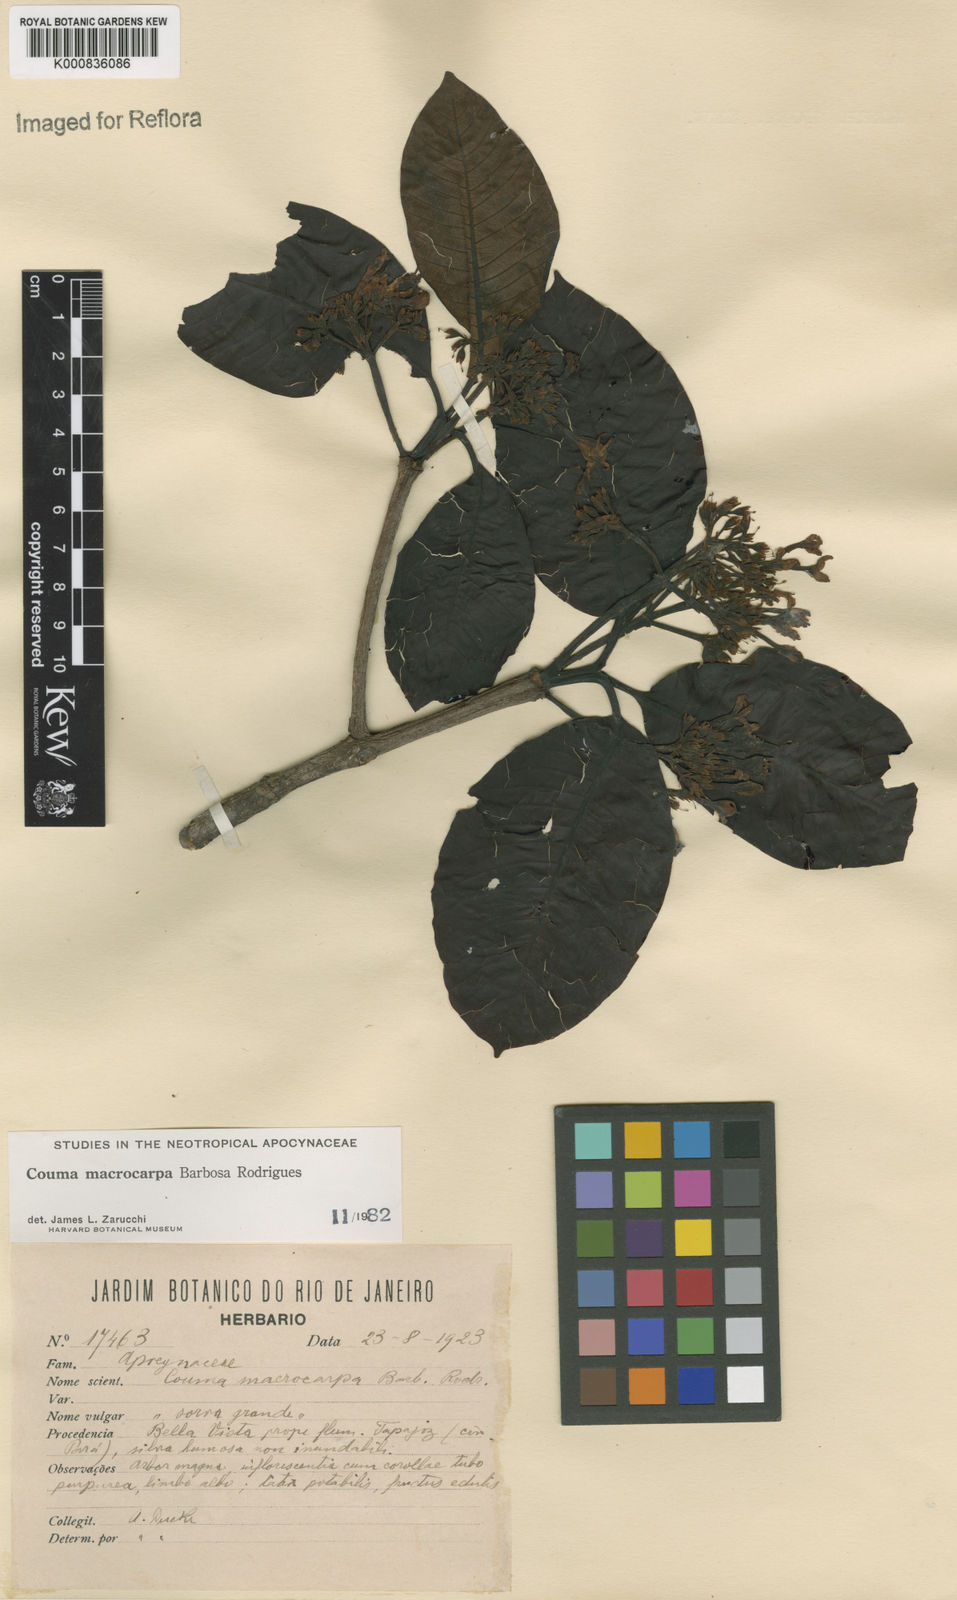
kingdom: Plantae
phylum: Tracheophyta
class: Magnoliopsida
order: Gentianales
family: Apocynaceae
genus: Couma
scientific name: Couma macrocarpa
